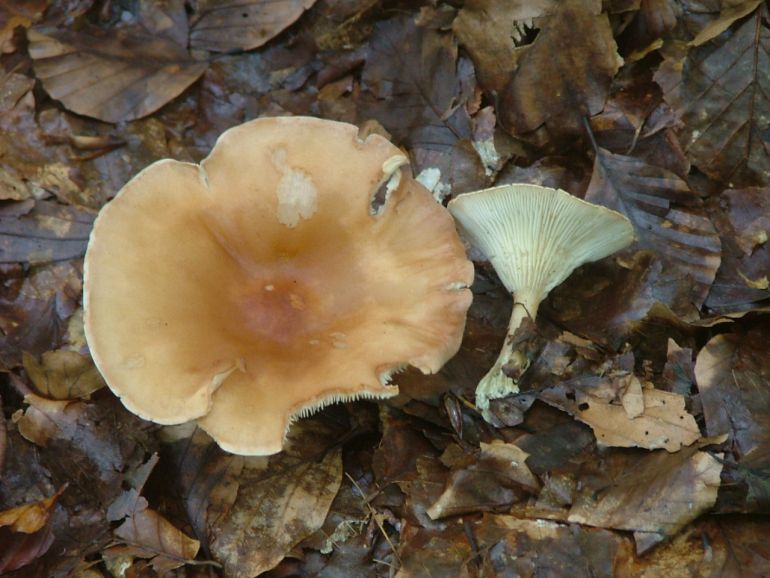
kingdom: Fungi
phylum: Basidiomycota
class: Agaricomycetes
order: Agaricales
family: Tricholomataceae
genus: Infundibulicybe
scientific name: Infundibulicybe gibba
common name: almindelig tragthat
